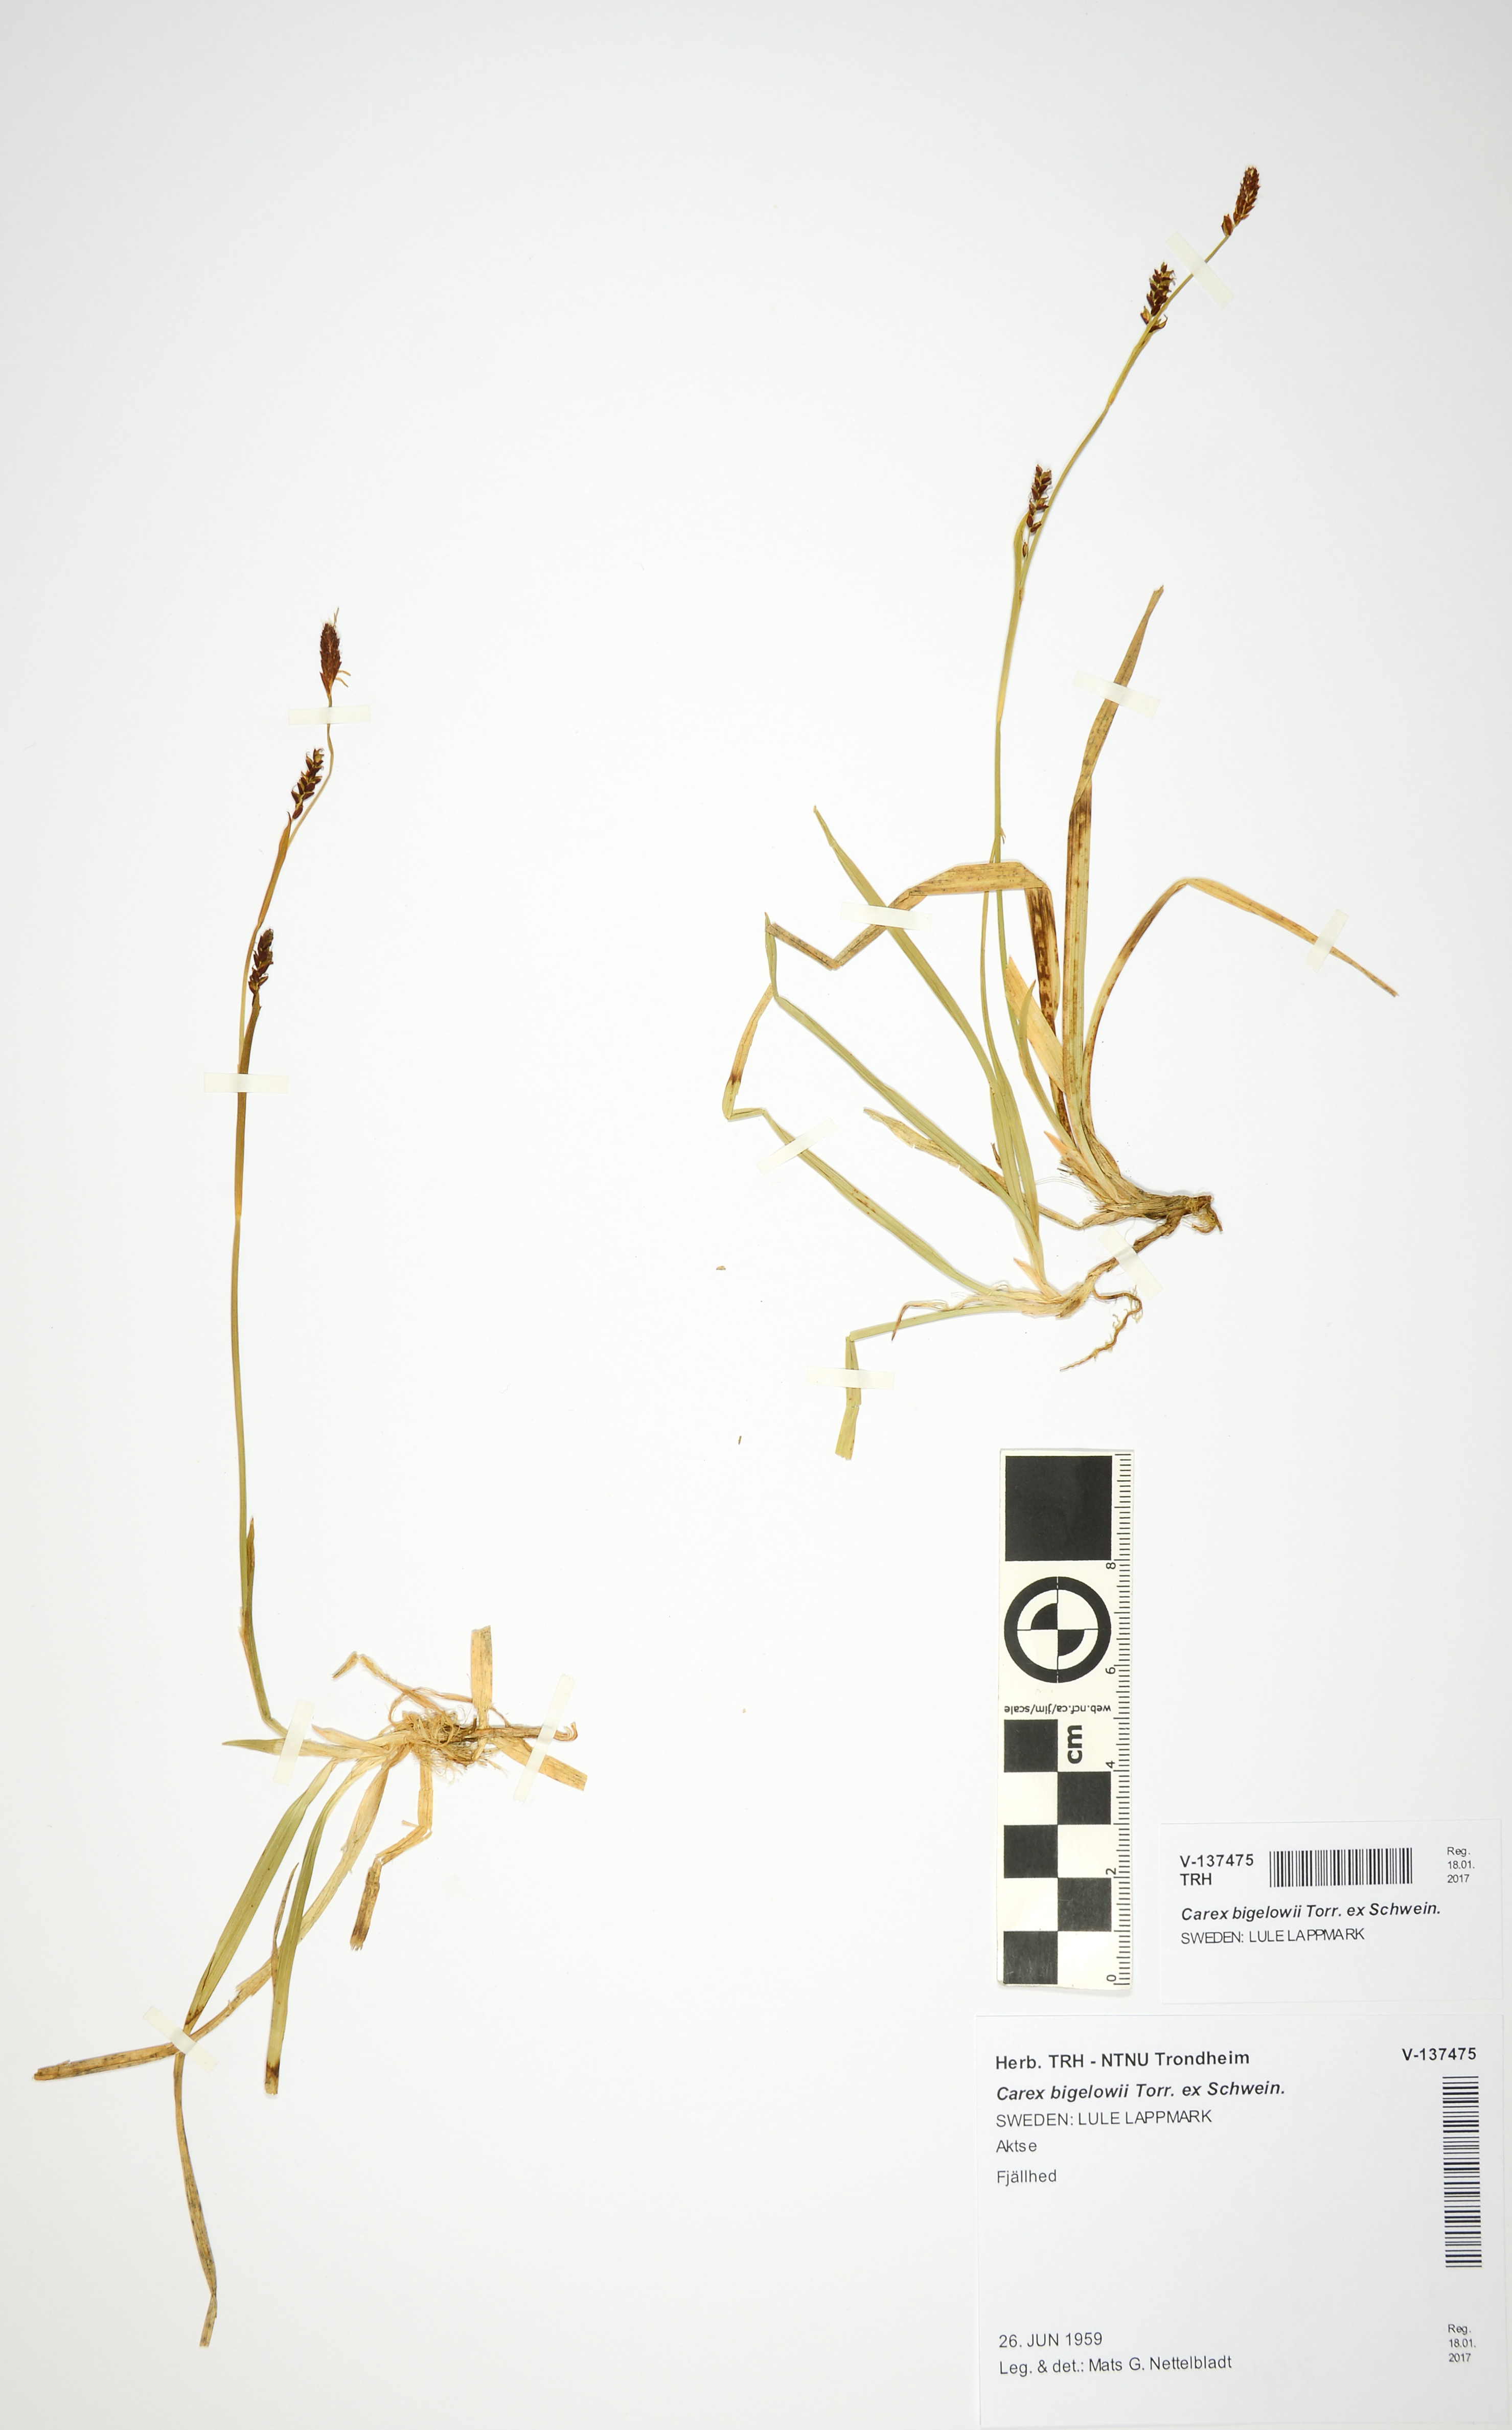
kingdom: Plantae
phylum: Tracheophyta
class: Liliopsida
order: Poales
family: Cyperaceae
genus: Carex
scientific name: Carex algida
